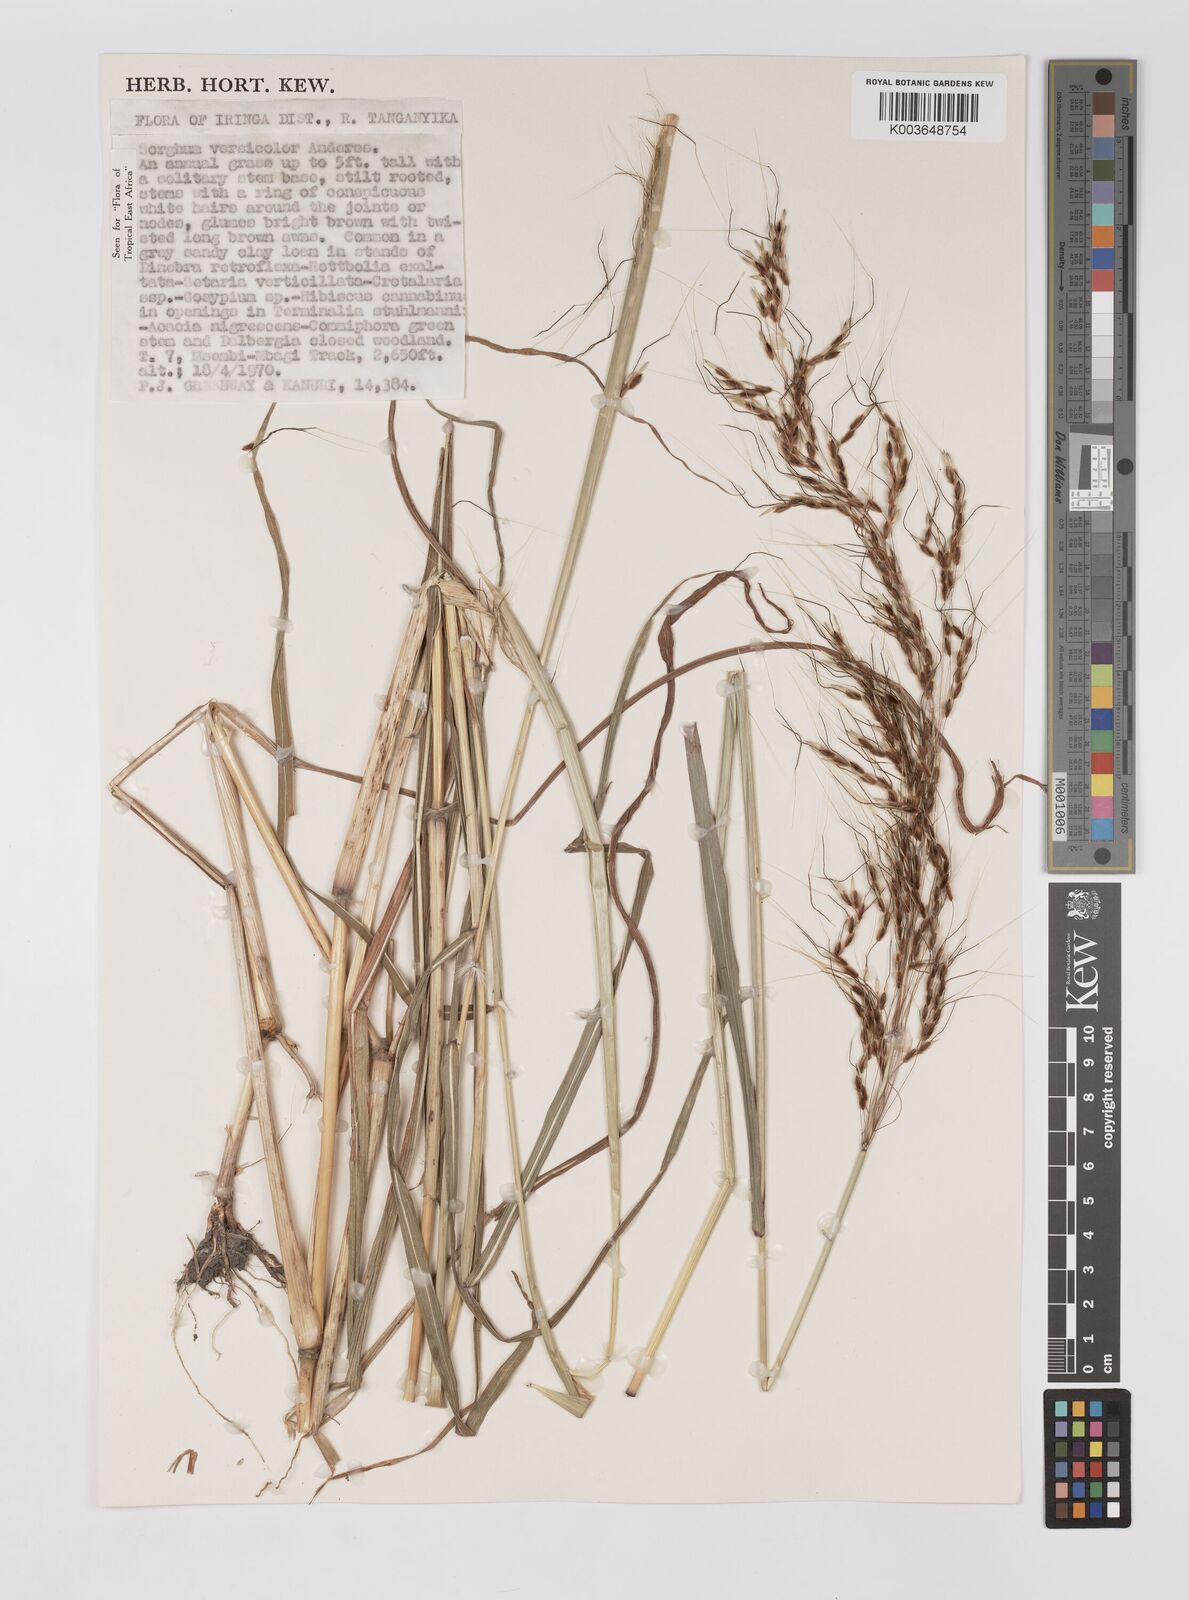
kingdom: Plantae
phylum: Tracheophyta
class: Liliopsida
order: Poales
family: Poaceae
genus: Sarga
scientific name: Sarga versicolor
